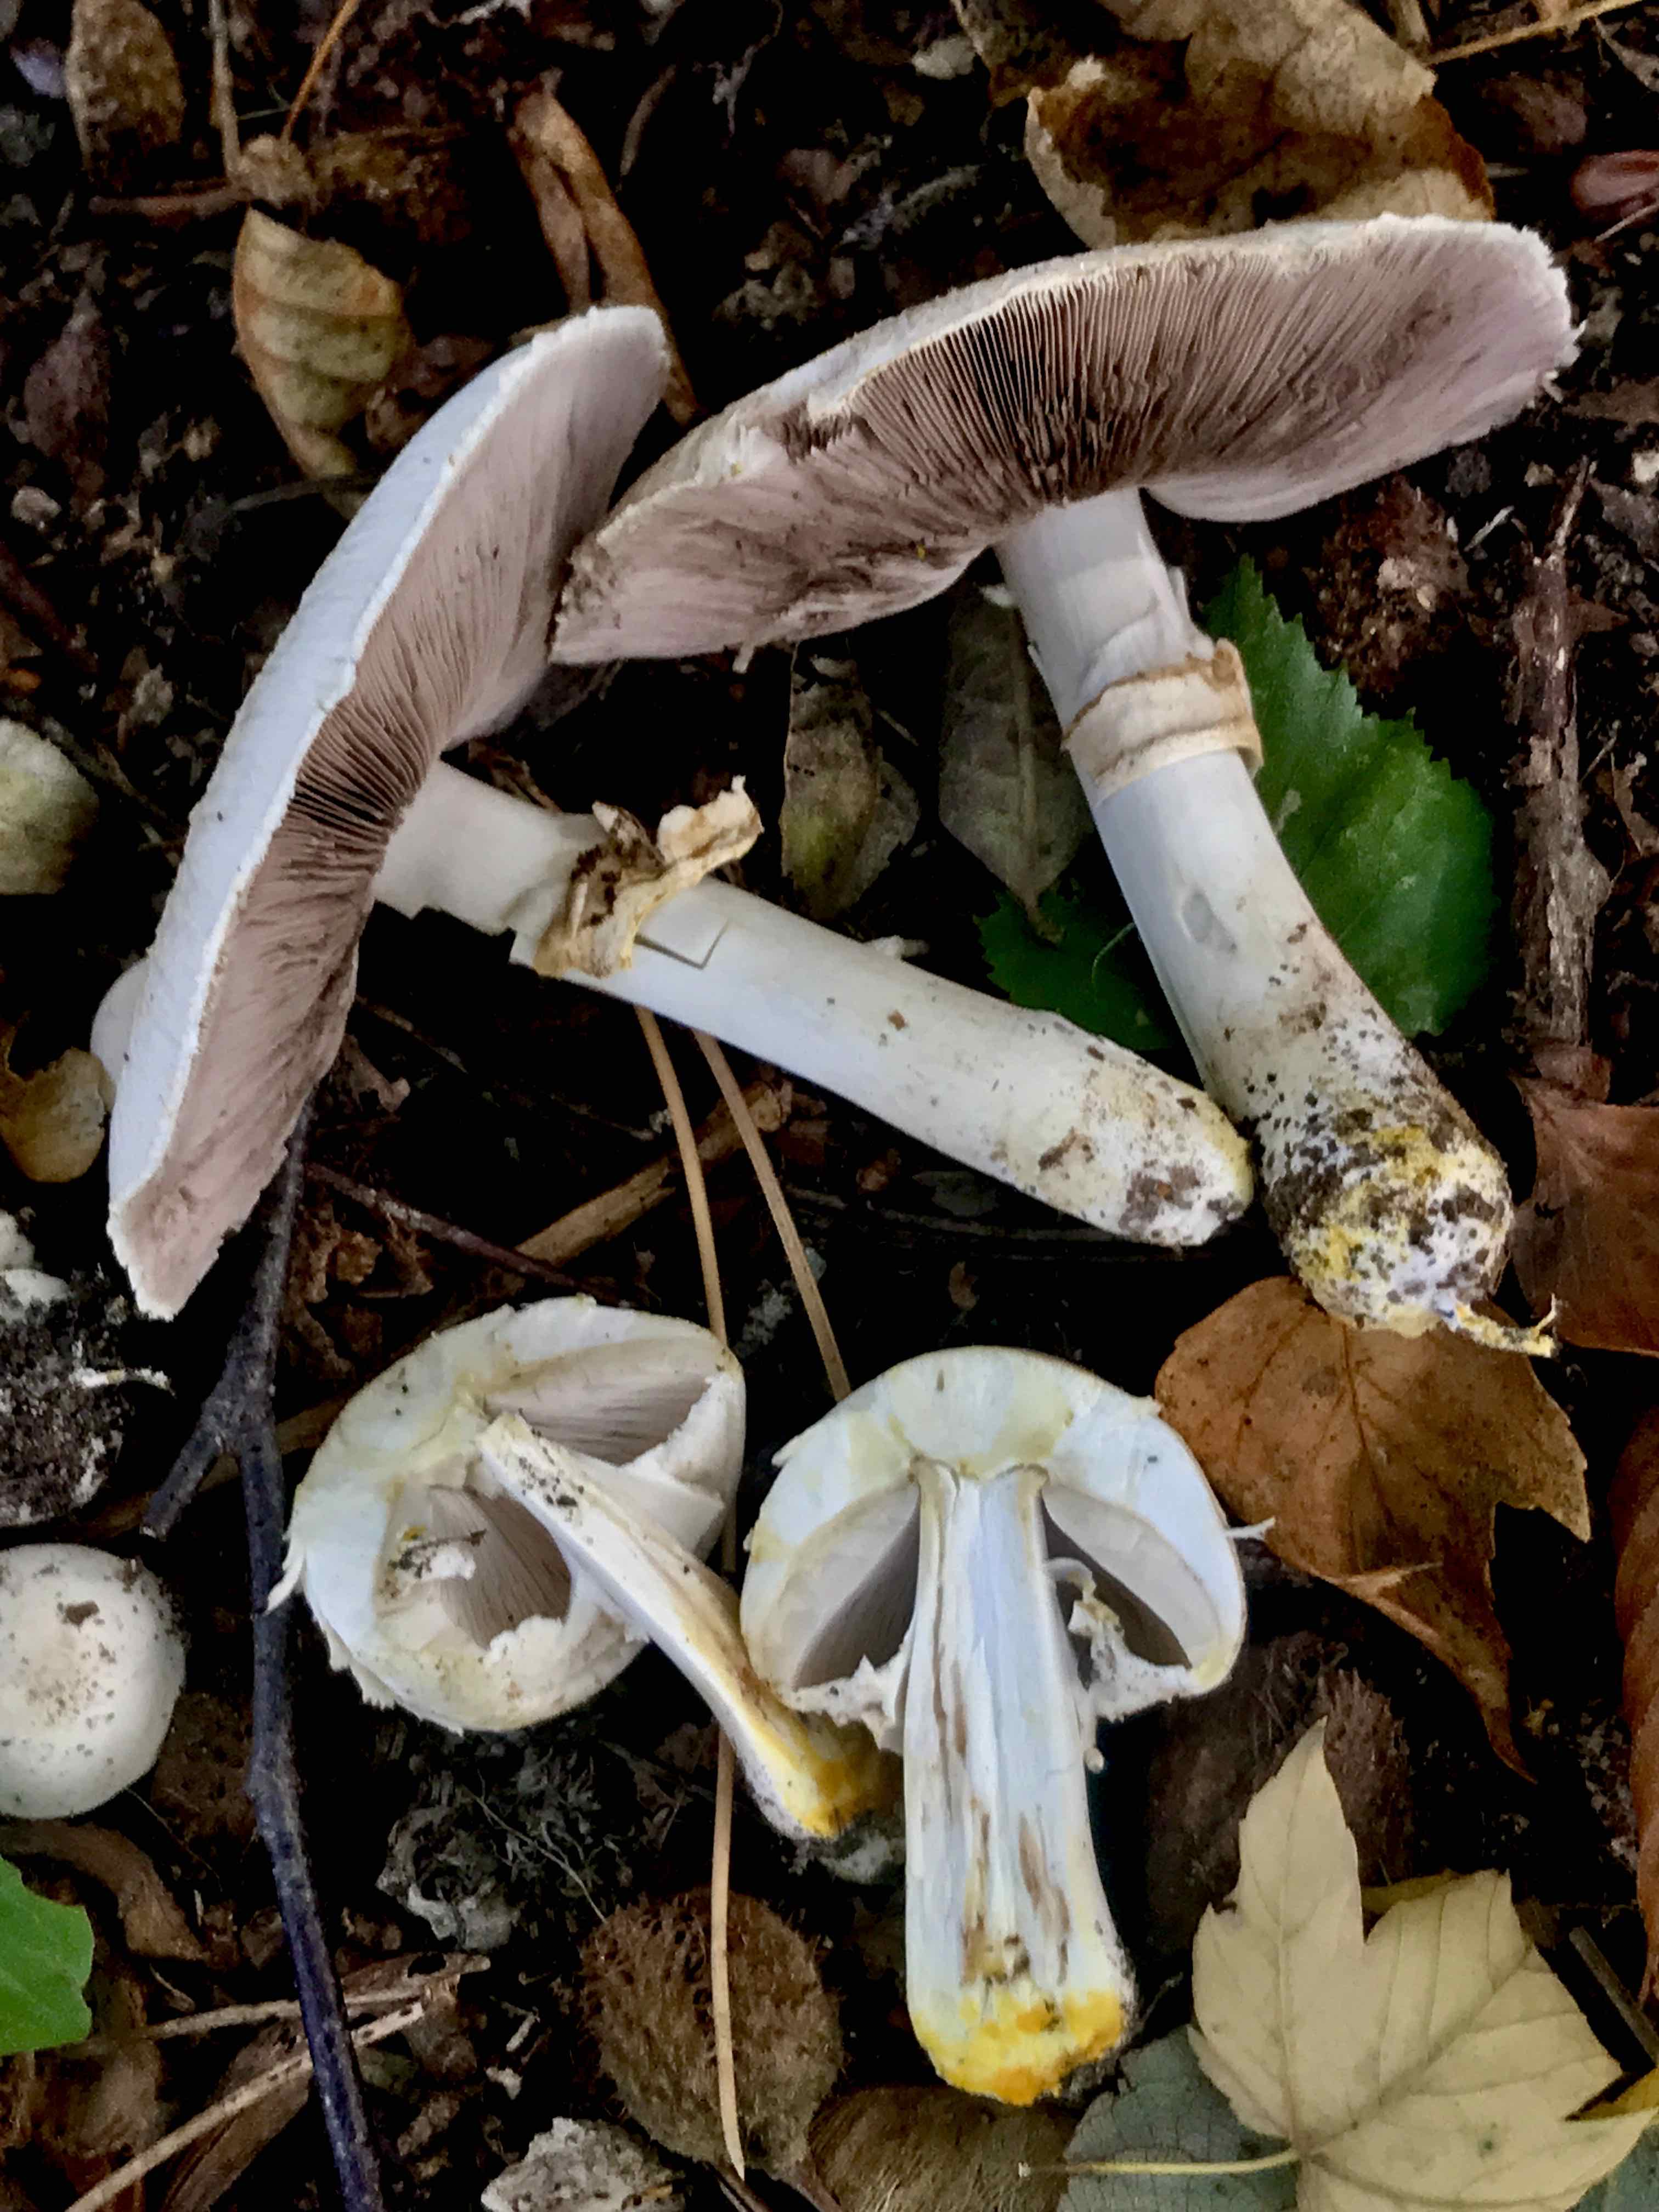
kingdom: Fungi
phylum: Basidiomycota
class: Agaricomycetes
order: Agaricales
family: Agaricaceae
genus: Agaricus
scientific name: Agaricus xanthodermus
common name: karbol-champignon
